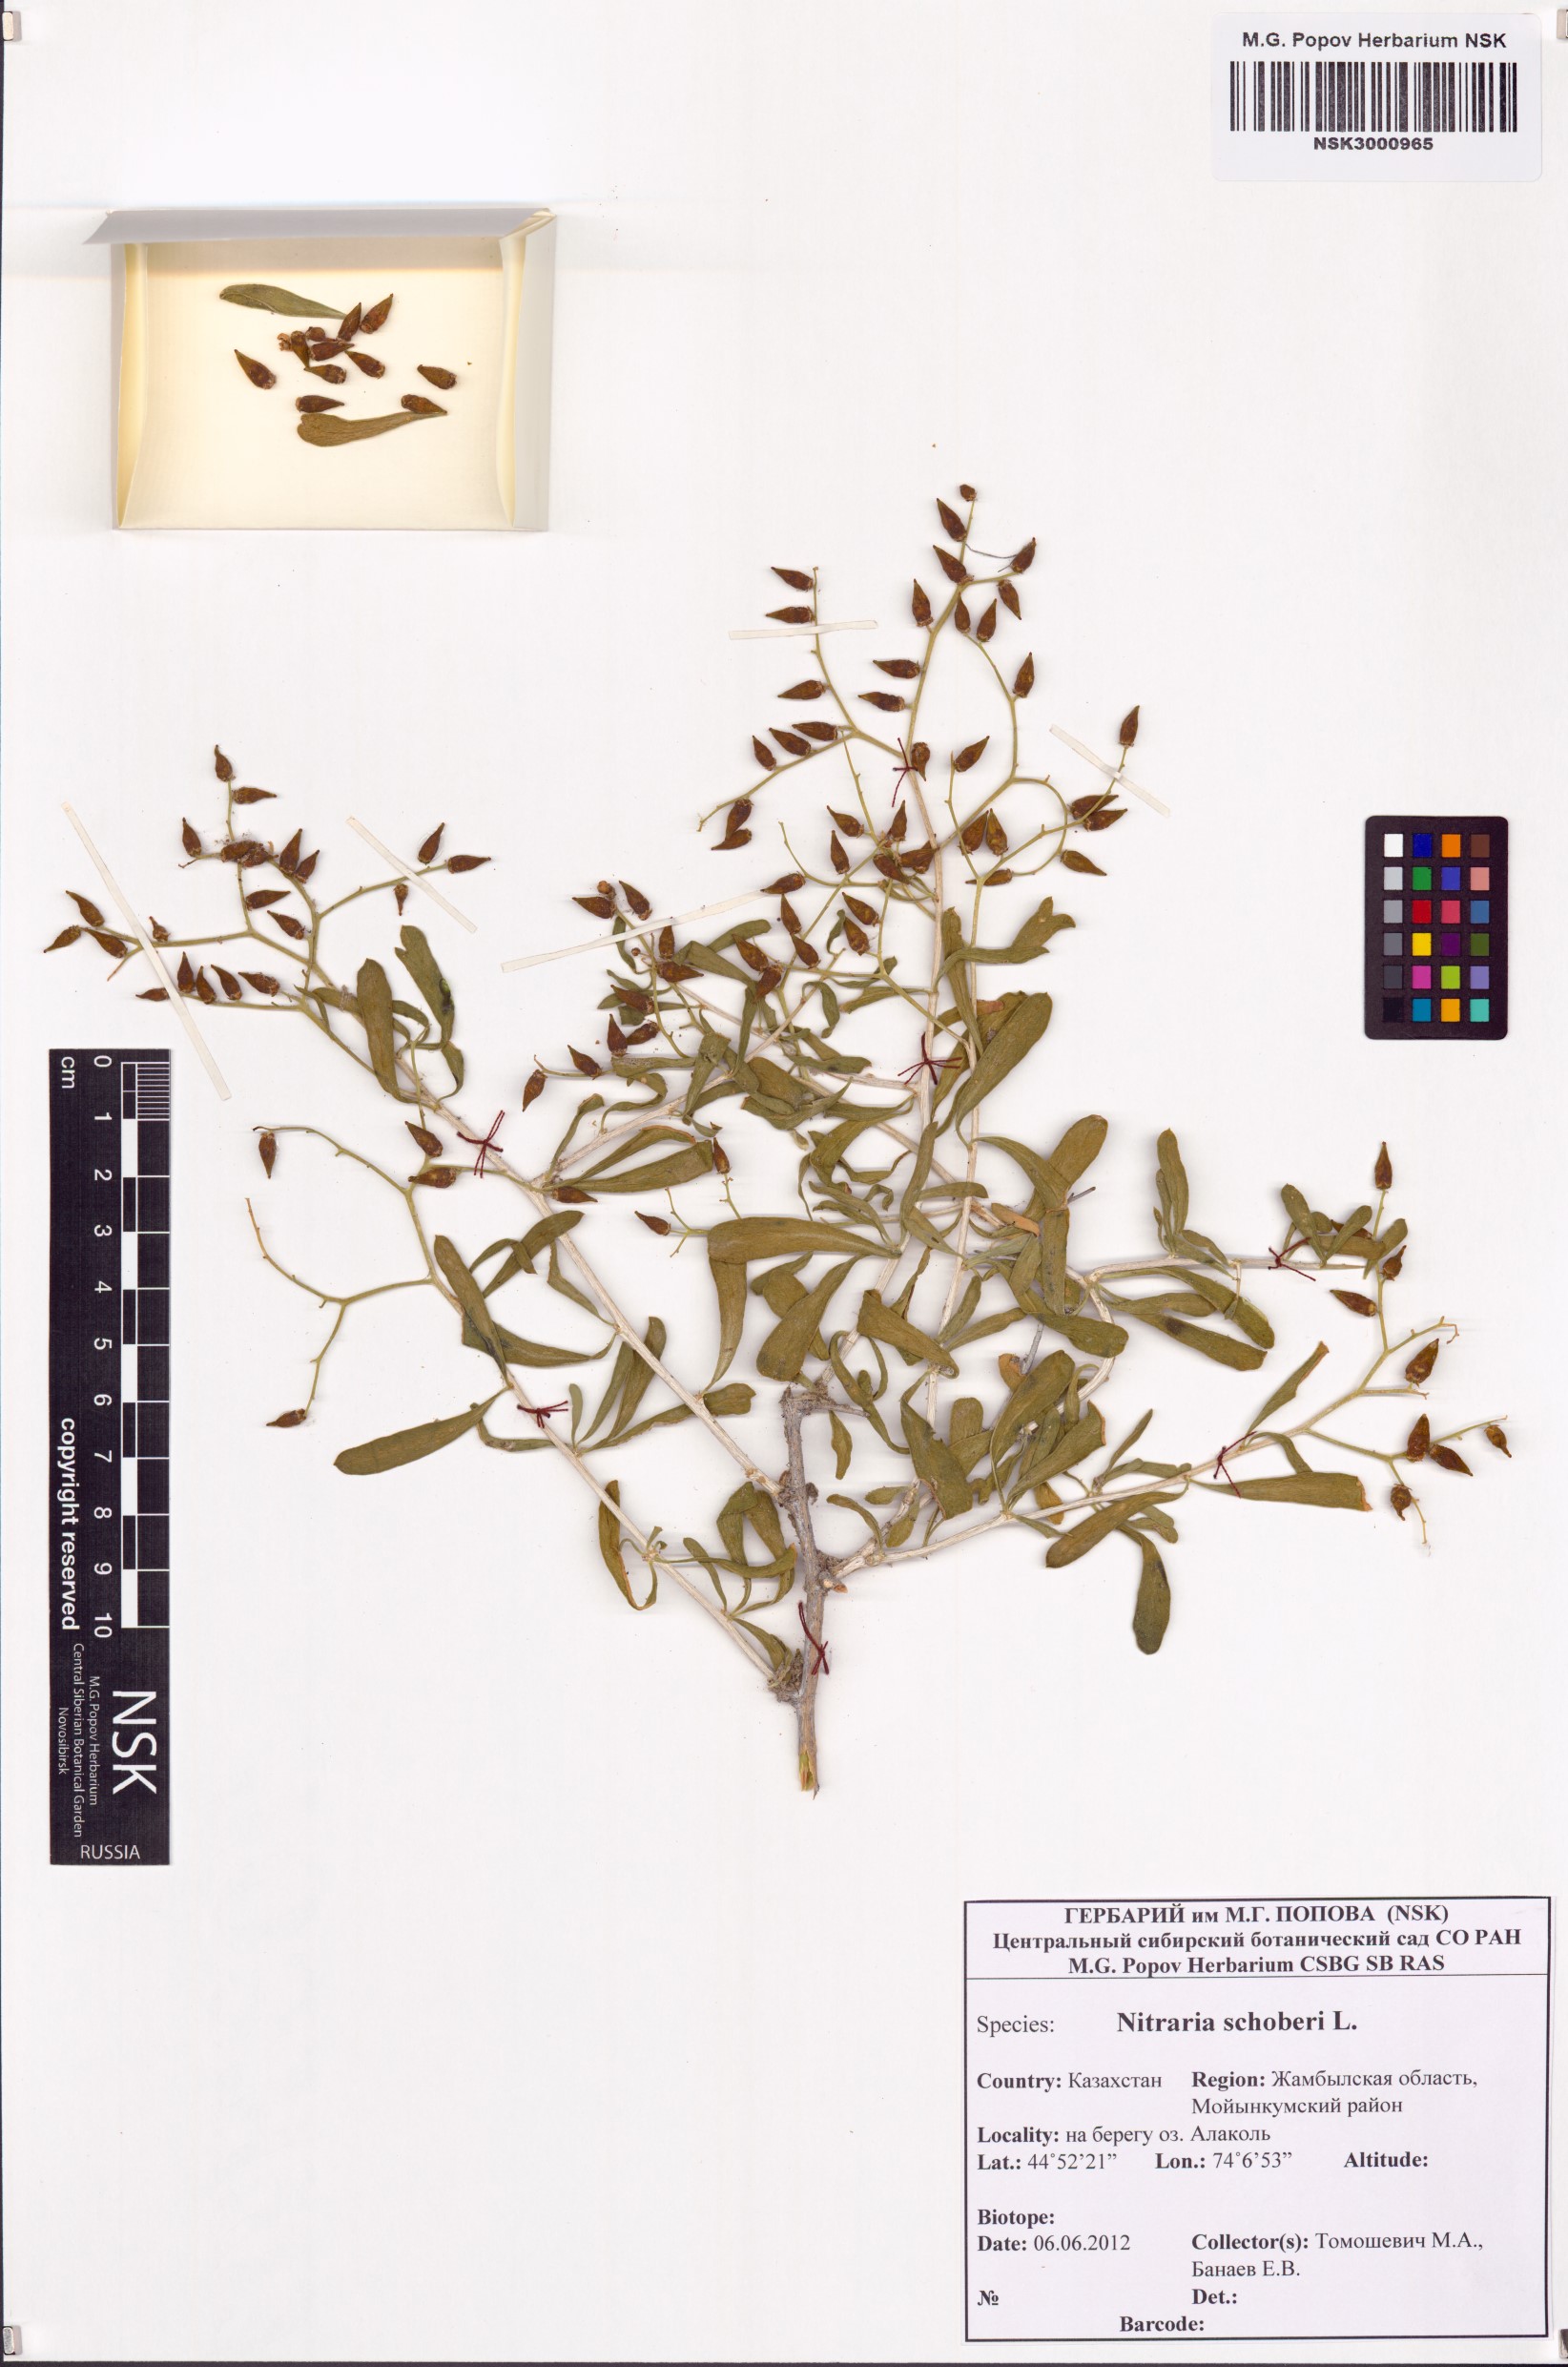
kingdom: Plantae
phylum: Tracheophyta
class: Magnoliopsida
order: Sapindales
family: Nitrariaceae
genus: Nitraria
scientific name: Nitraria schoberi
